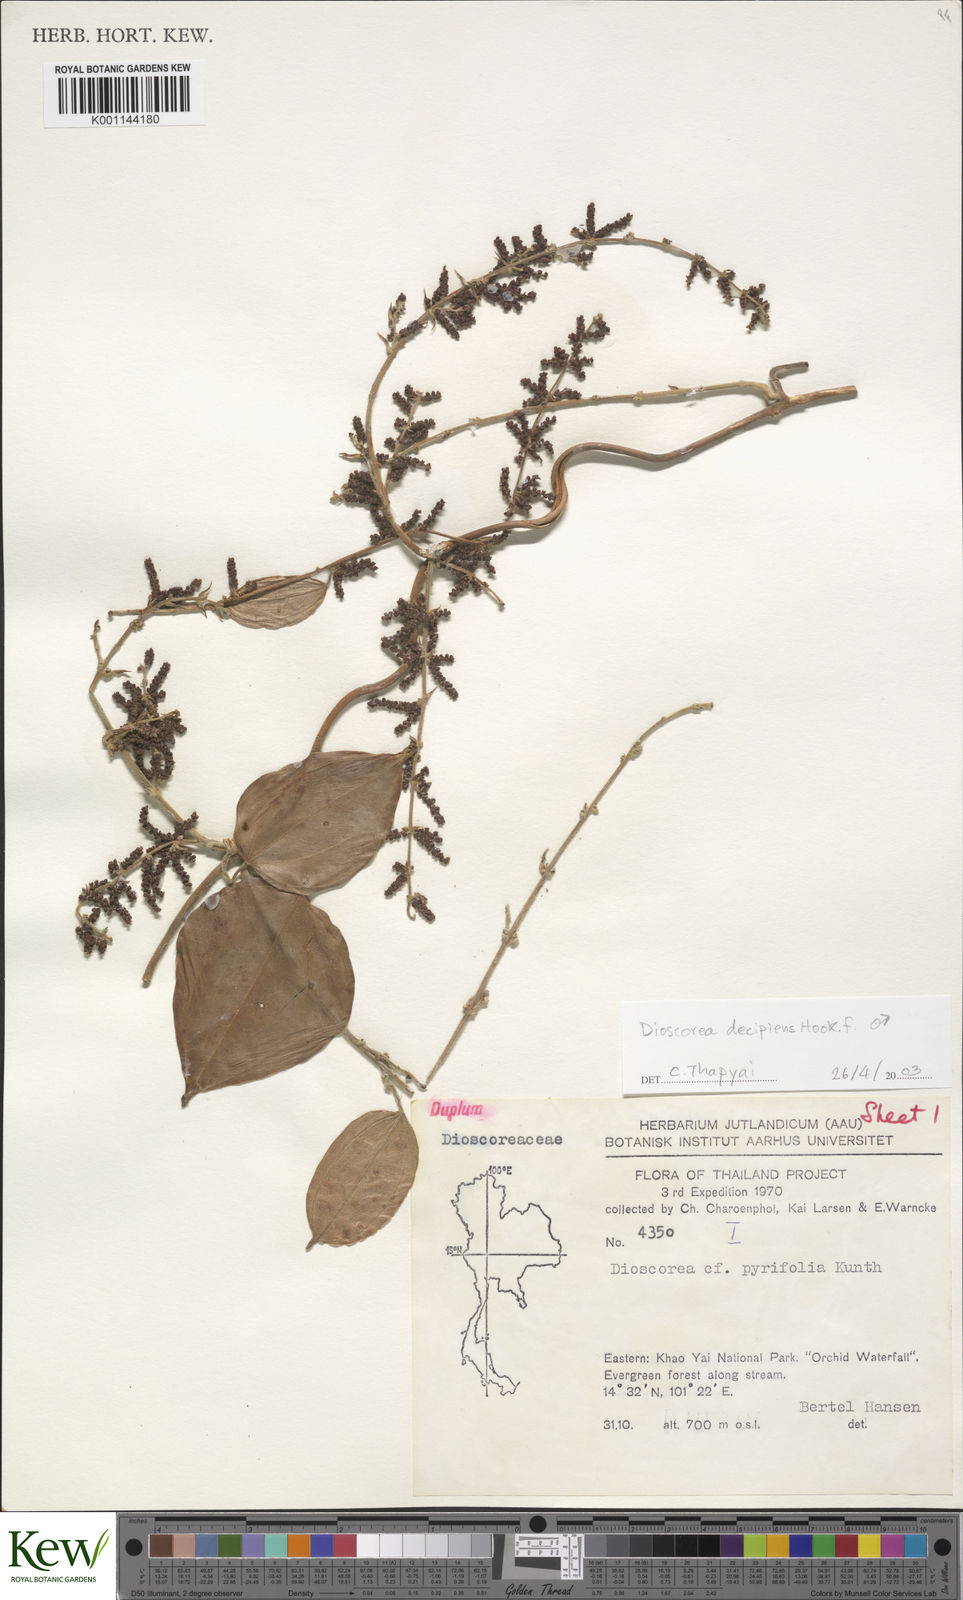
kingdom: Plantae
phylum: Tracheophyta
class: Liliopsida
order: Dioscoreales
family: Dioscoreaceae
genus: Dioscorea
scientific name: Dioscorea decipiens
